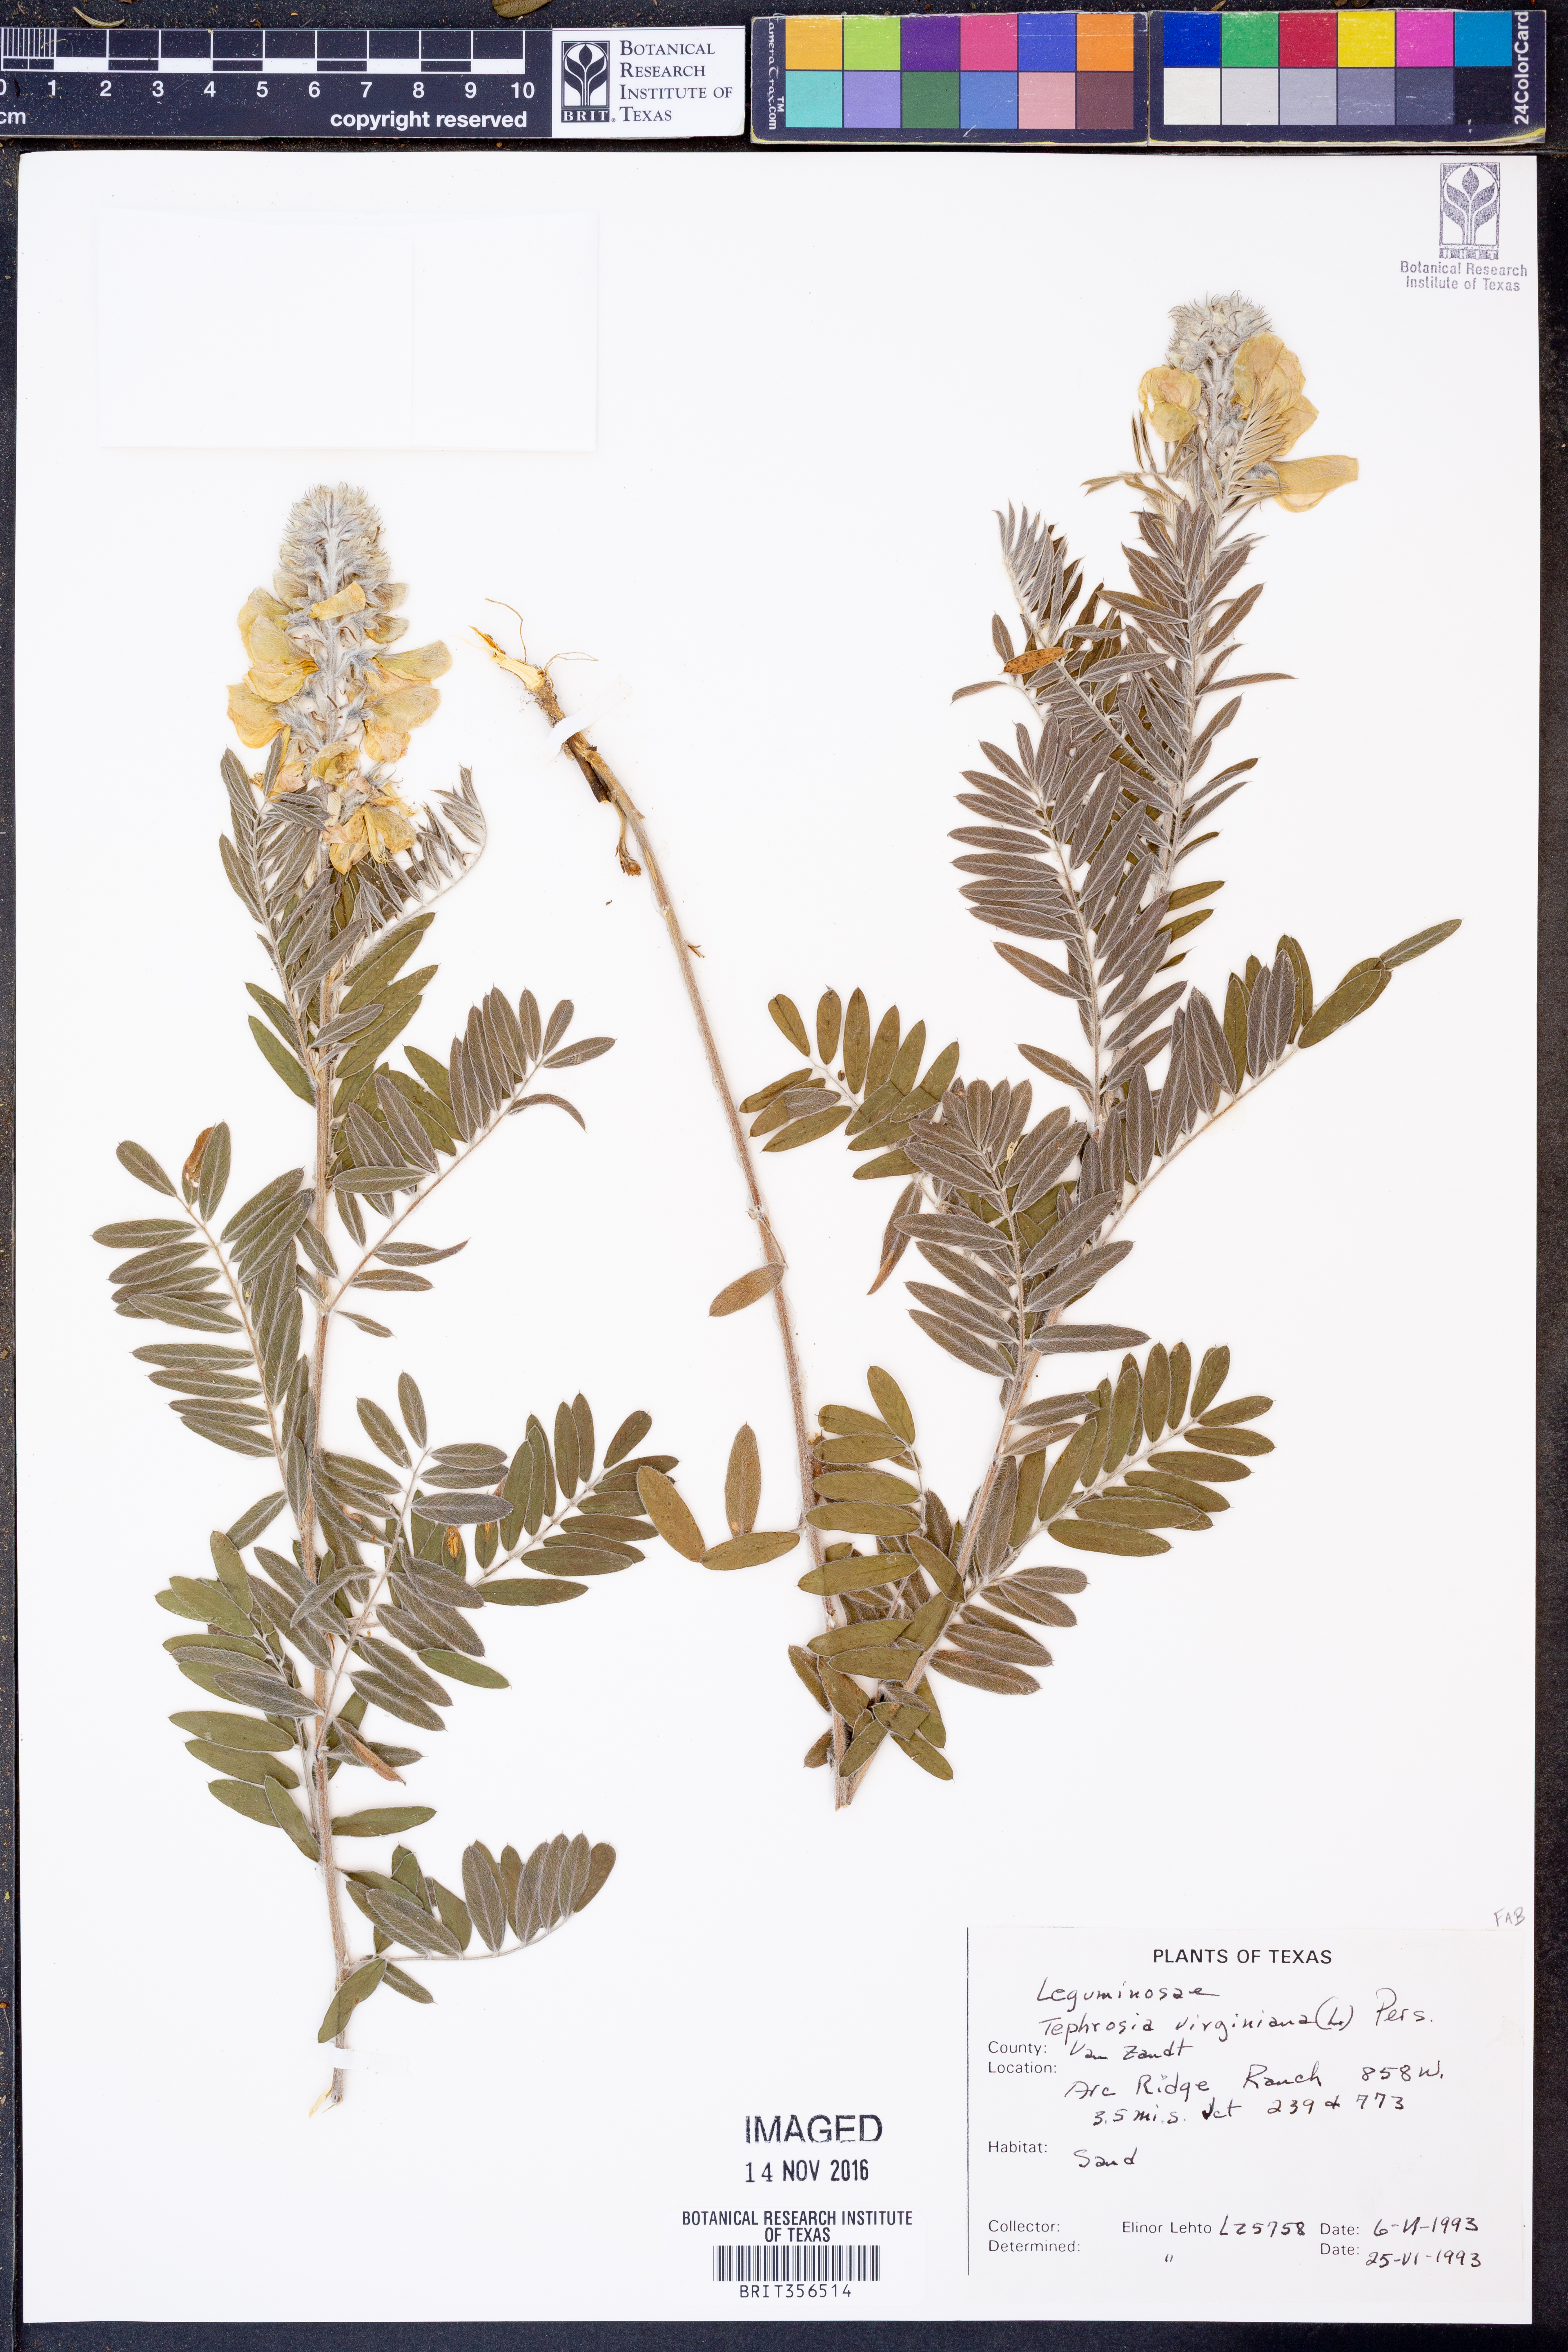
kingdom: Plantae
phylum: Tracheophyta
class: Magnoliopsida
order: Fabales
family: Fabaceae
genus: Tephrosia
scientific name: Tephrosia virginiana
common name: Rabbit-pea
